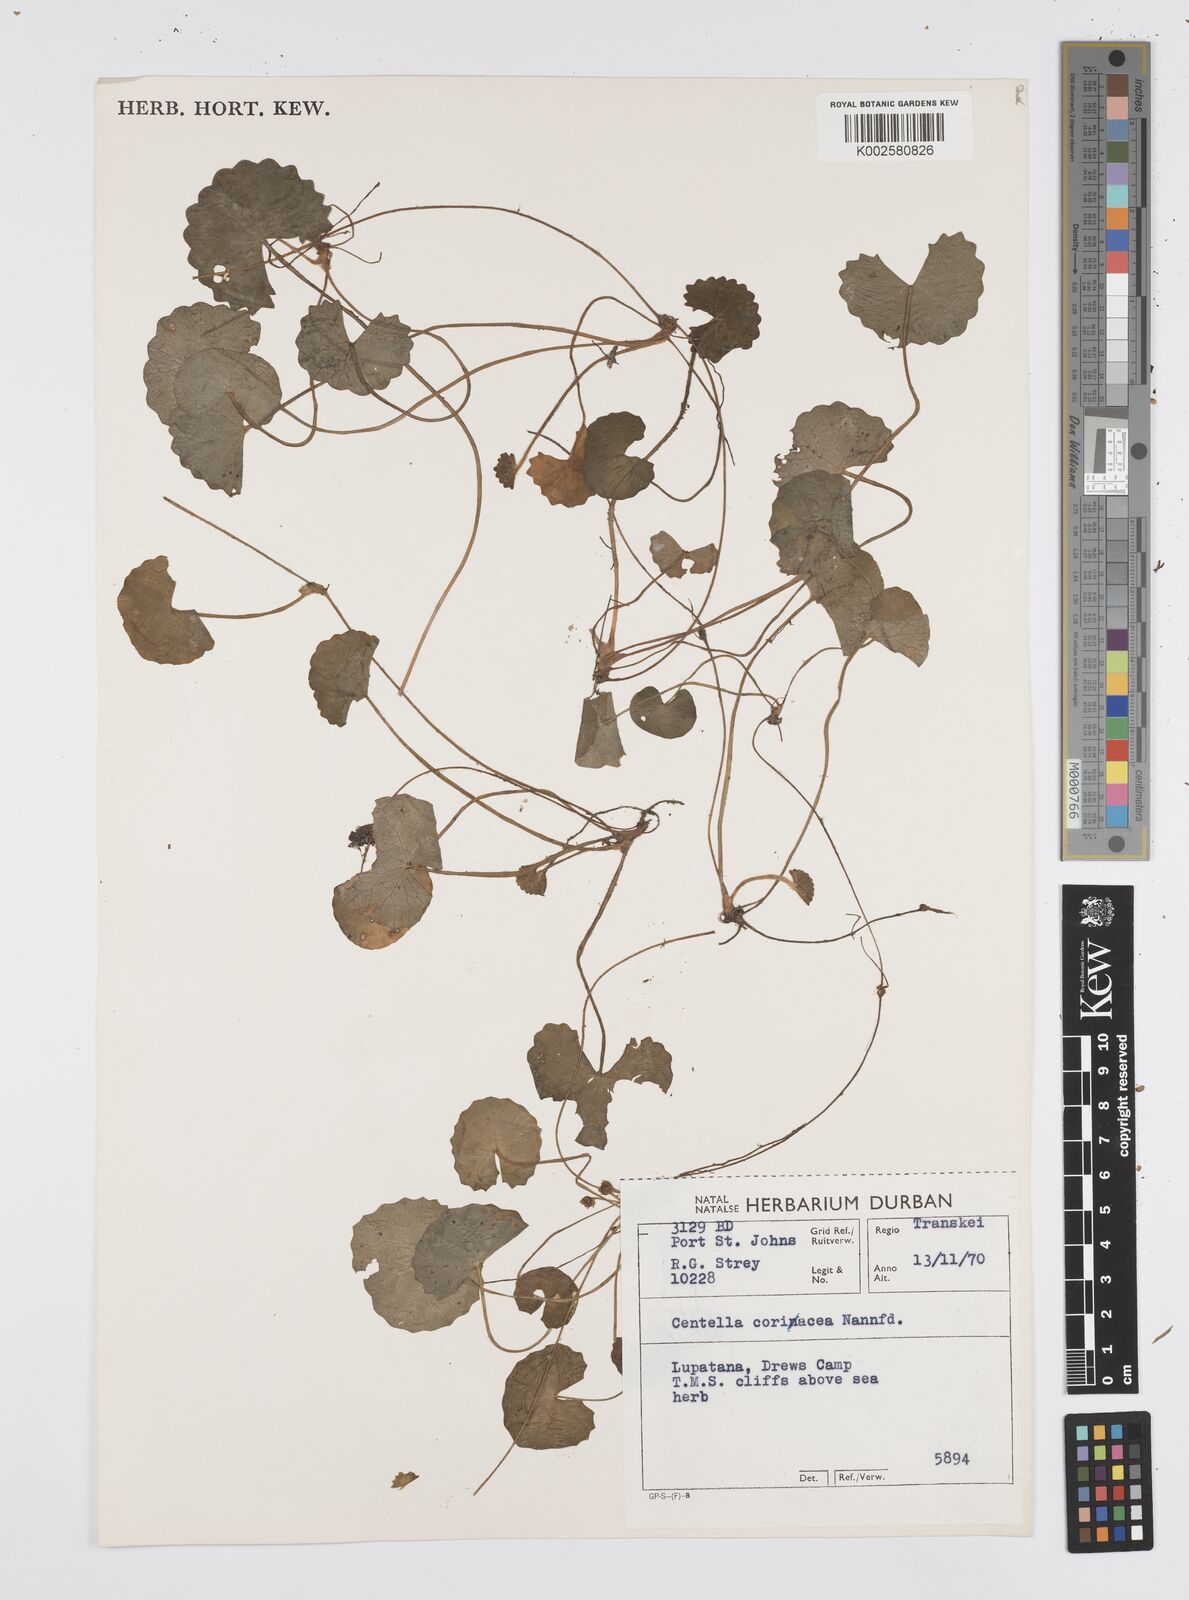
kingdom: Plantae
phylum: Tracheophyta
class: Magnoliopsida
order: Apiales
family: Apiaceae
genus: Centella
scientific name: Centella coriacea
